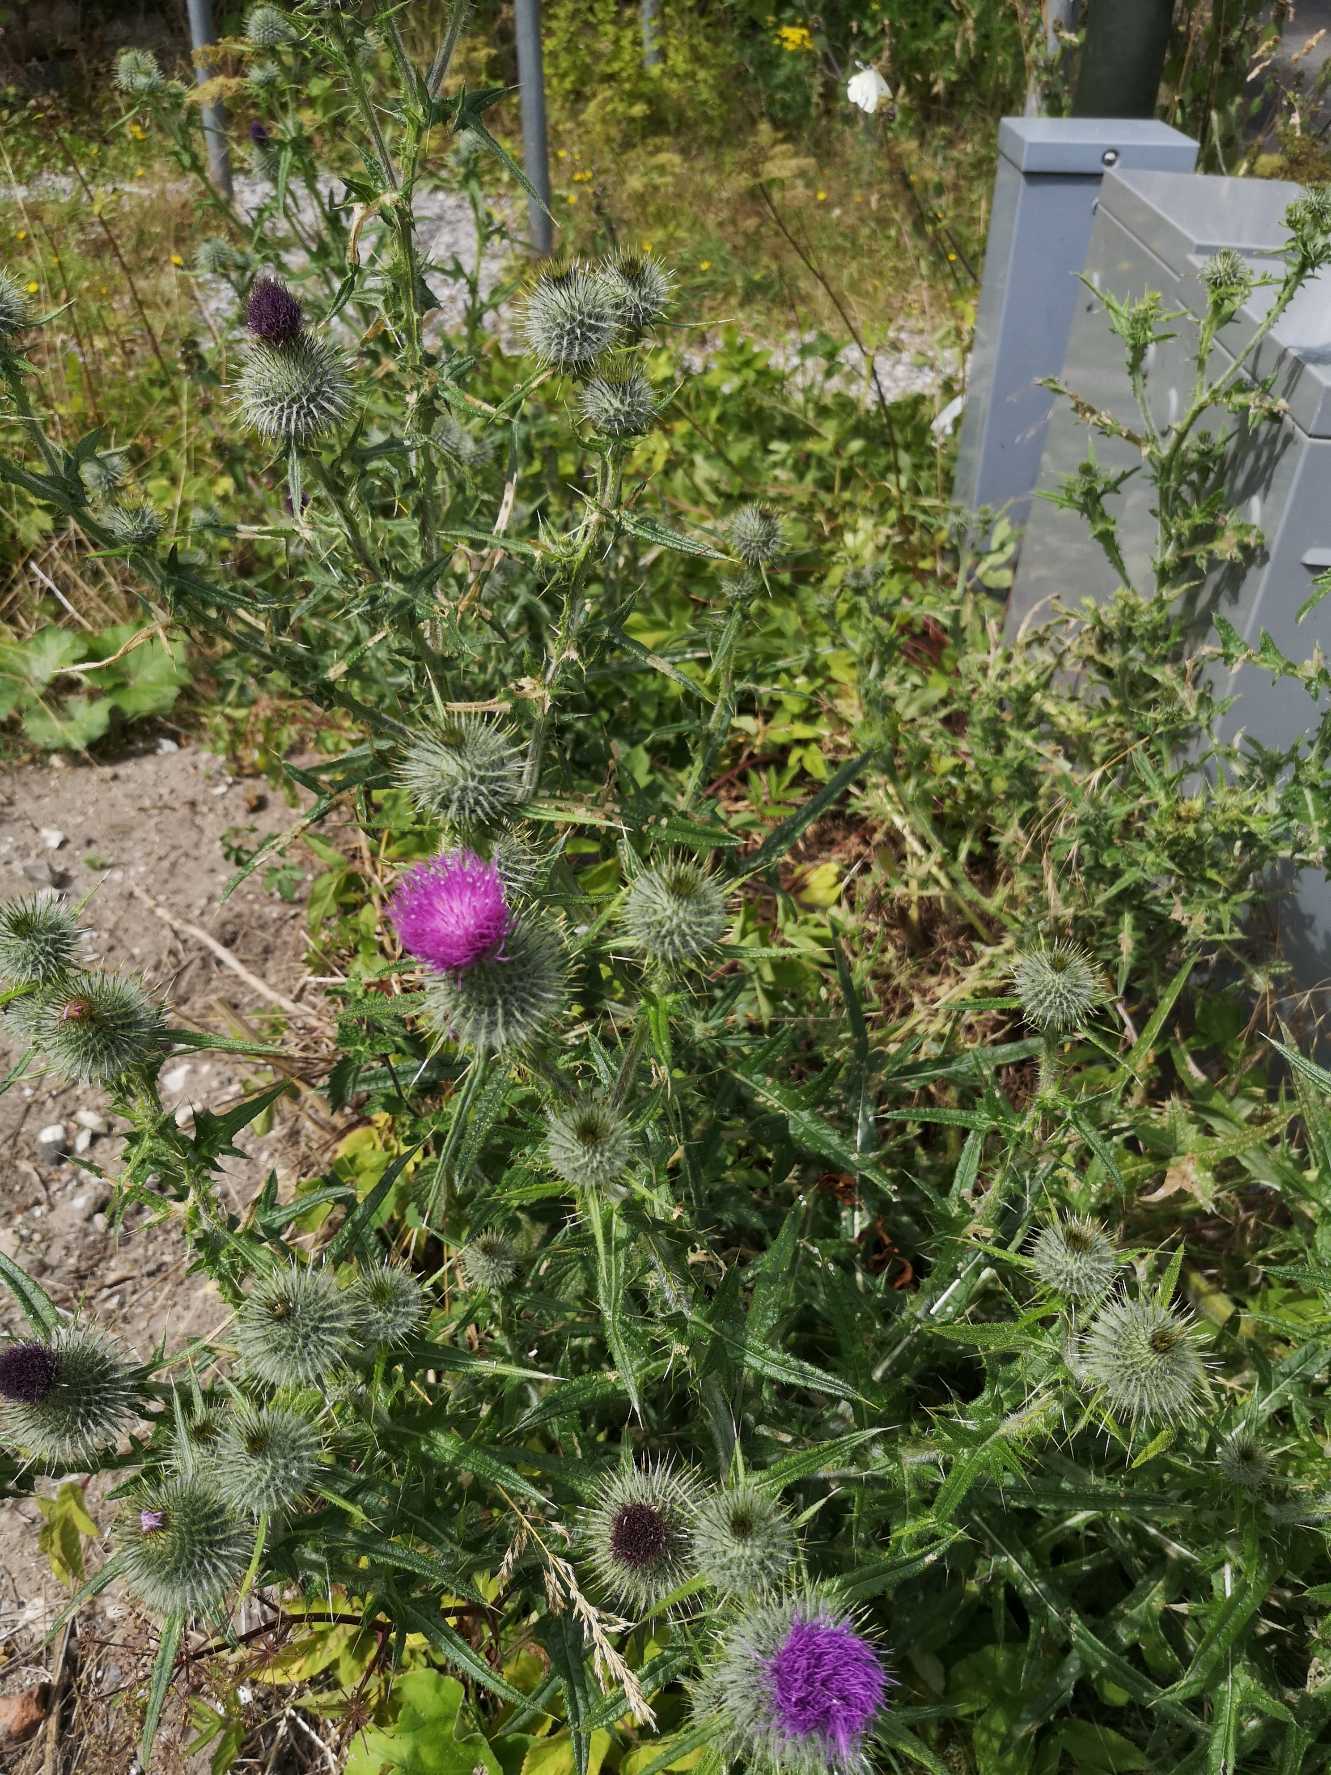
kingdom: Plantae
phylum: Tracheophyta
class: Magnoliopsida
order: Asterales
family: Asteraceae
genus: Cirsium
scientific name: Cirsium vulgare
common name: Horse-tidsel
